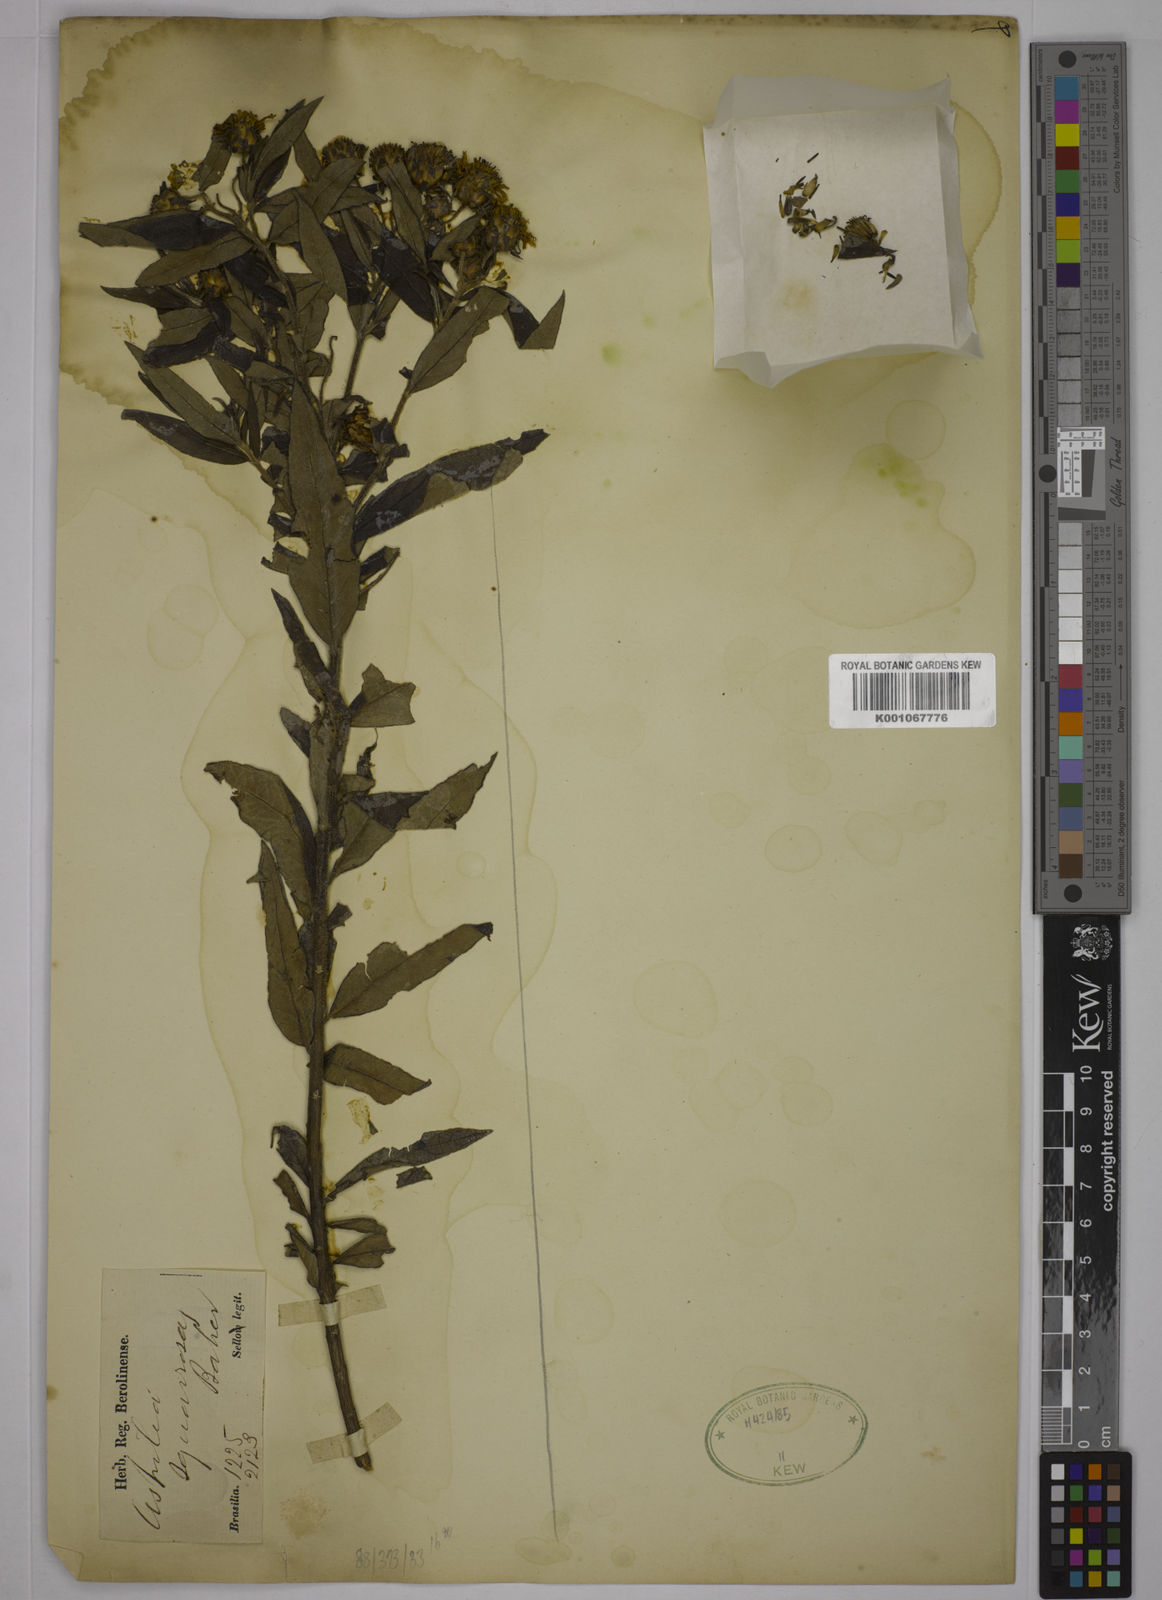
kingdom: Plantae
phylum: Tracheophyta
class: Magnoliopsida
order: Asterales
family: Asteraceae
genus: Wedelia
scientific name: Wedelia squarrosa
